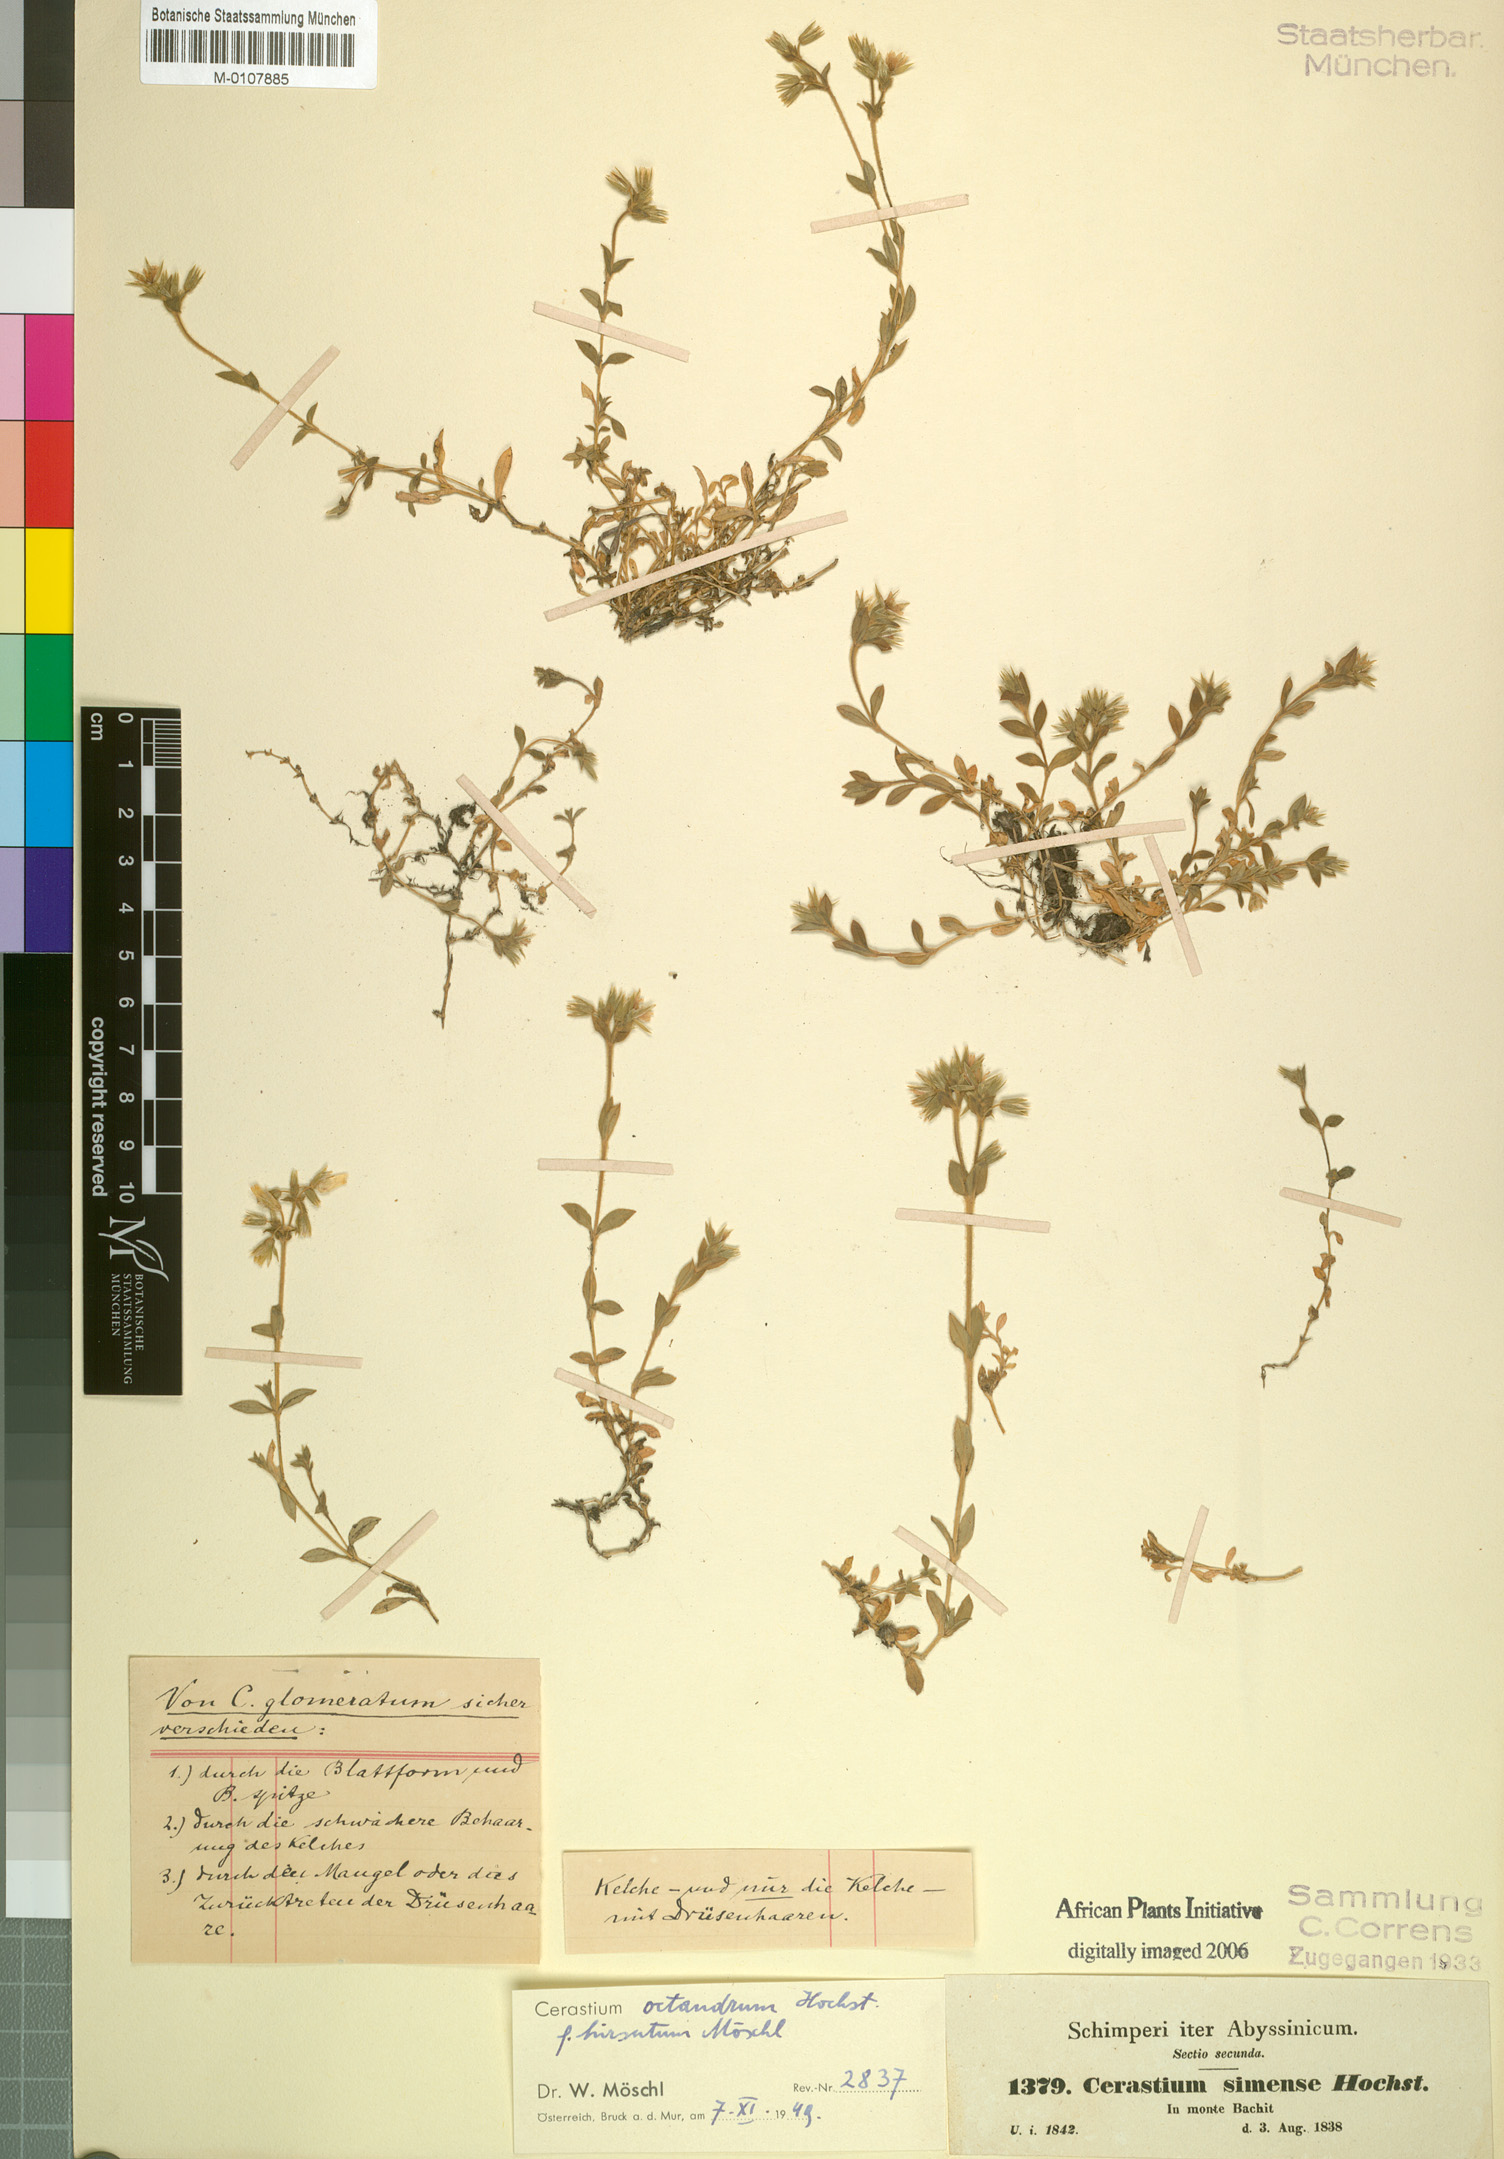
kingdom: Plantae
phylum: Tracheophyta
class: Magnoliopsida
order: Caryophyllales
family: Caryophyllaceae
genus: Cerastium
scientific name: Cerastium octandrum
